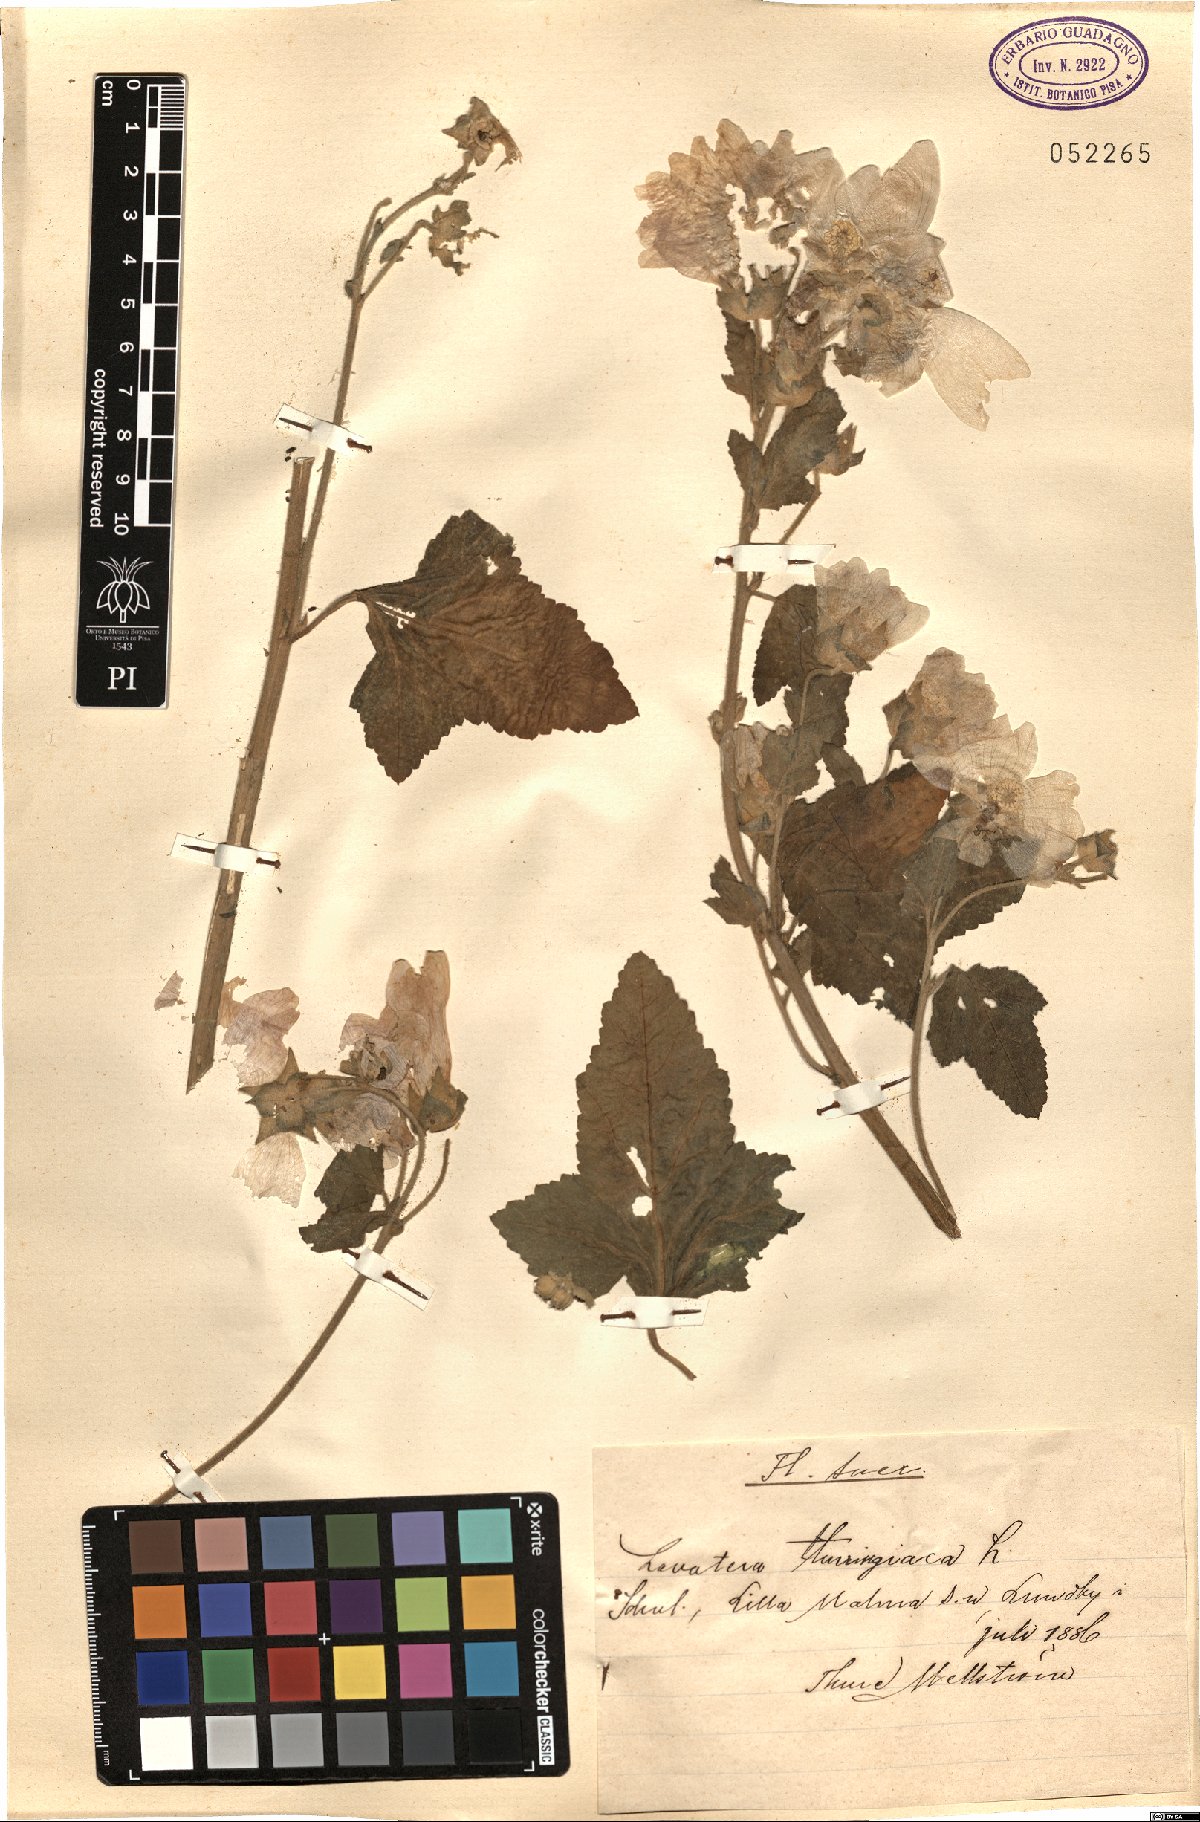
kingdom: Plantae
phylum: Tracheophyta
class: Magnoliopsida
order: Malvales
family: Malvaceae
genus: Malva
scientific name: Malva thuringiaca
